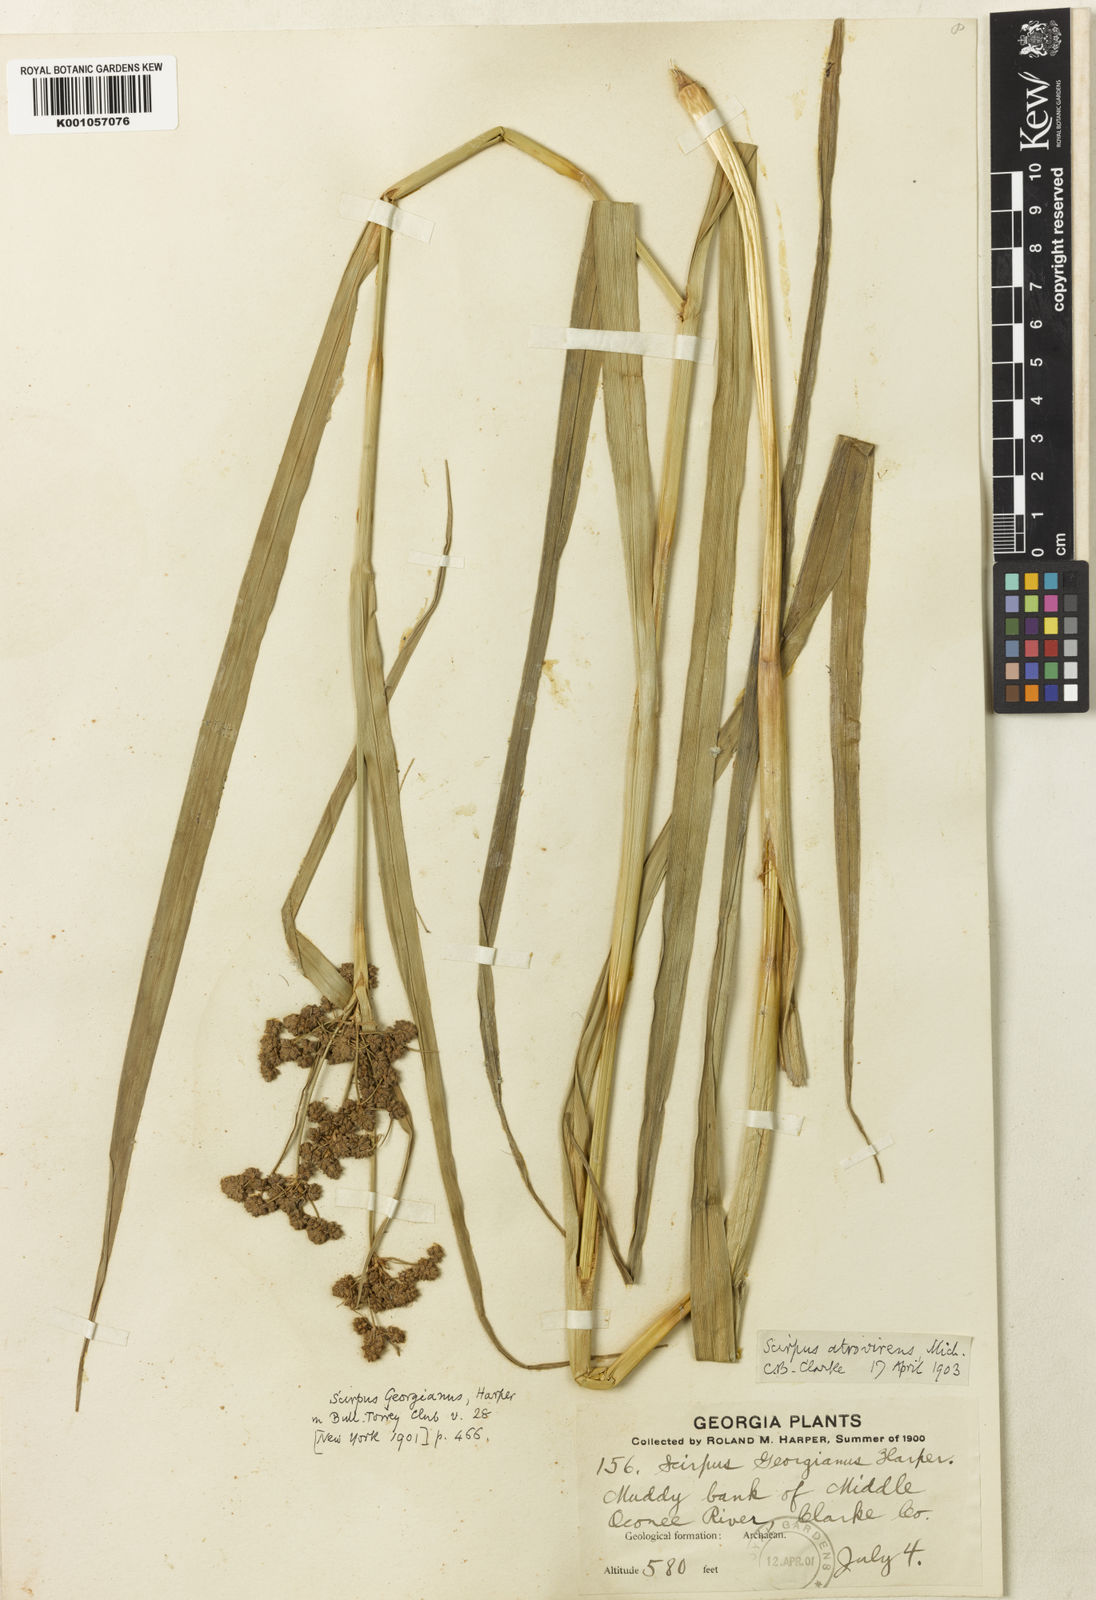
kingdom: Plantae
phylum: Tracheophyta
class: Liliopsida
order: Poales
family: Cyperaceae
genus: Scirpus
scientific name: Scirpus
